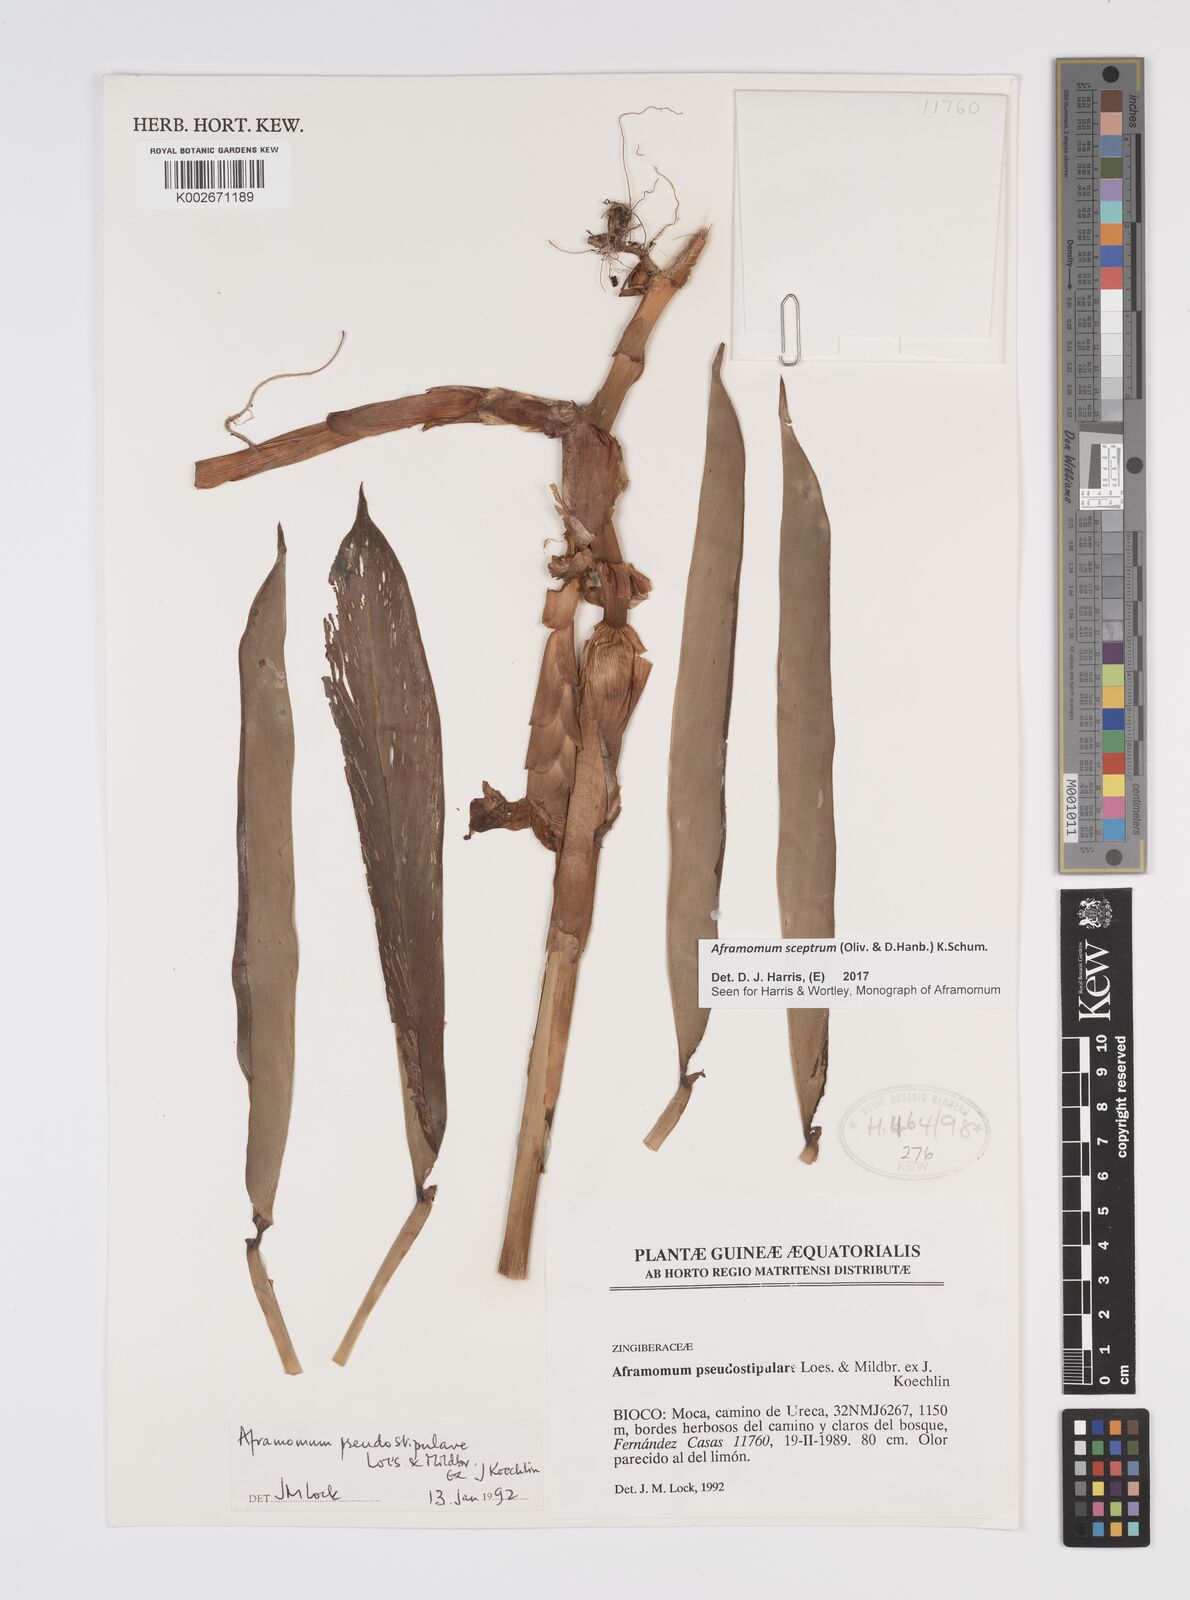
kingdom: Plantae
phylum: Tracheophyta
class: Liliopsida
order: Zingiberales
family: Zingiberaceae
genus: Aframomum
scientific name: Aframomum cereum
